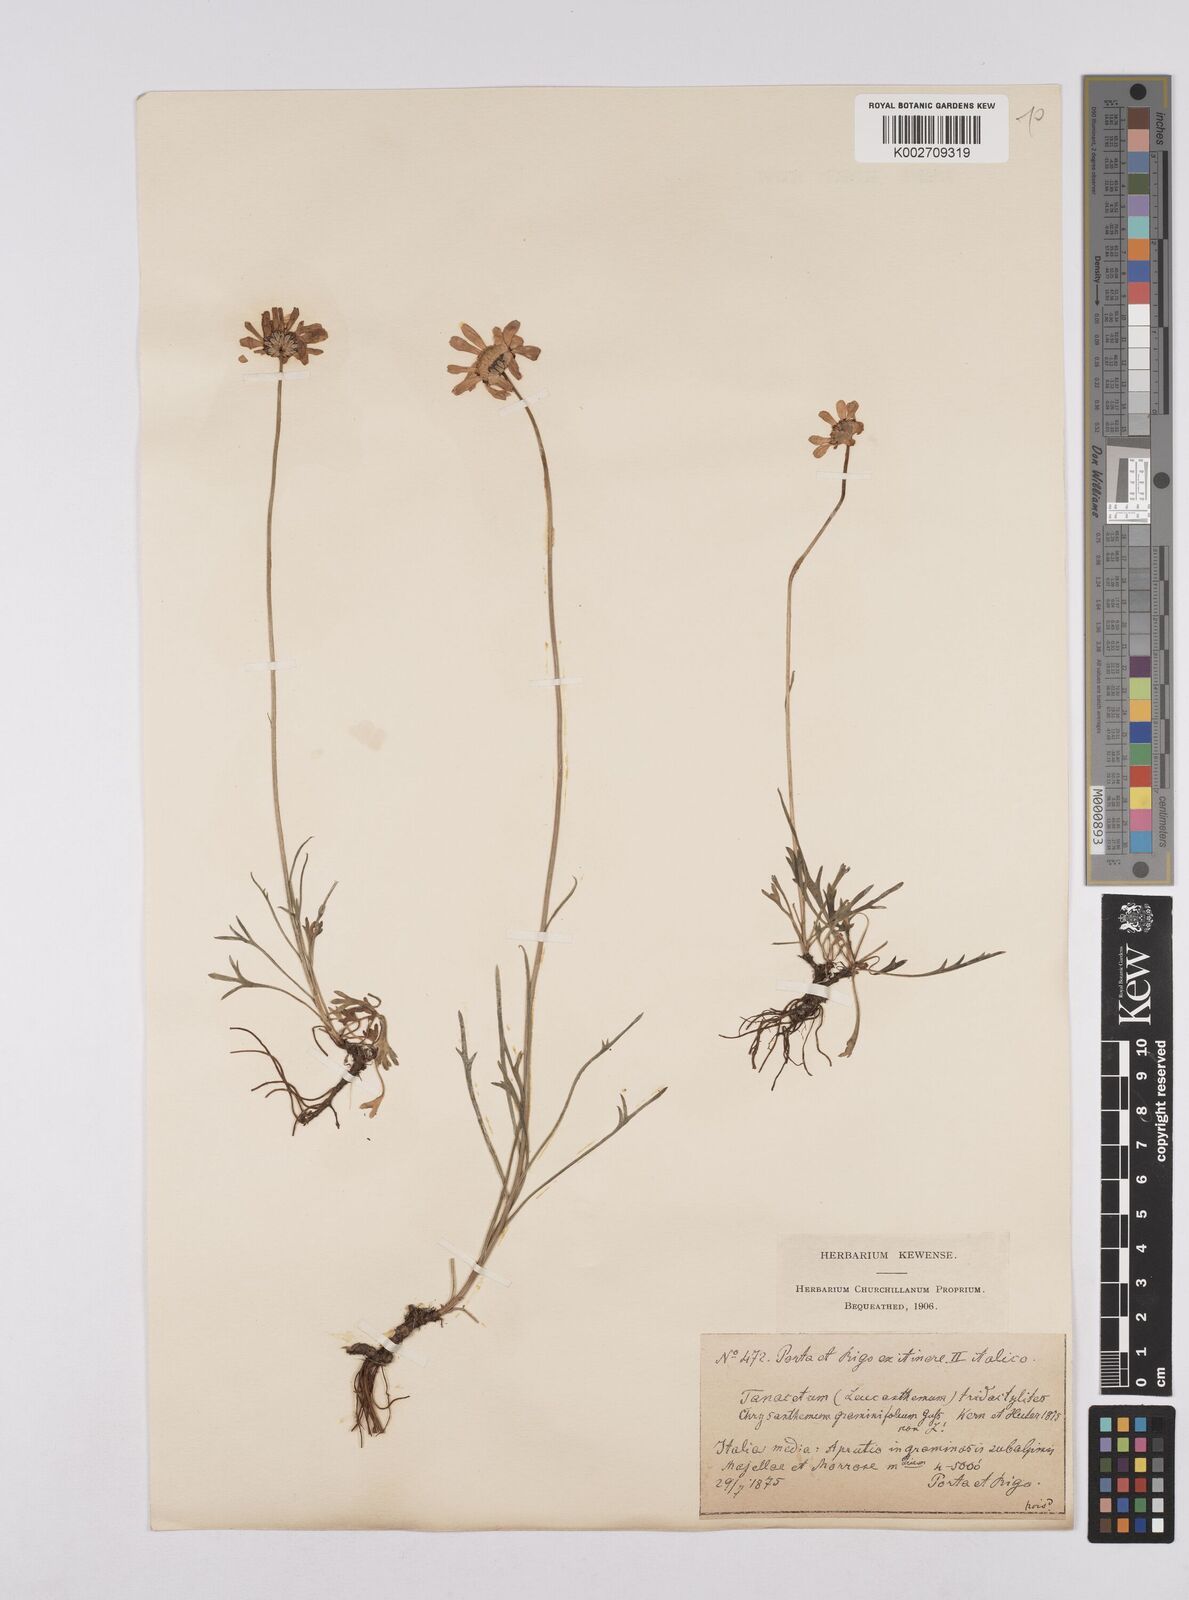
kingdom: Plantae
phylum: Tracheophyta
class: Magnoliopsida
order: Asterales
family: Asteraceae
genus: Leucanthemum
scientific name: Leucanthemum chloroticum
